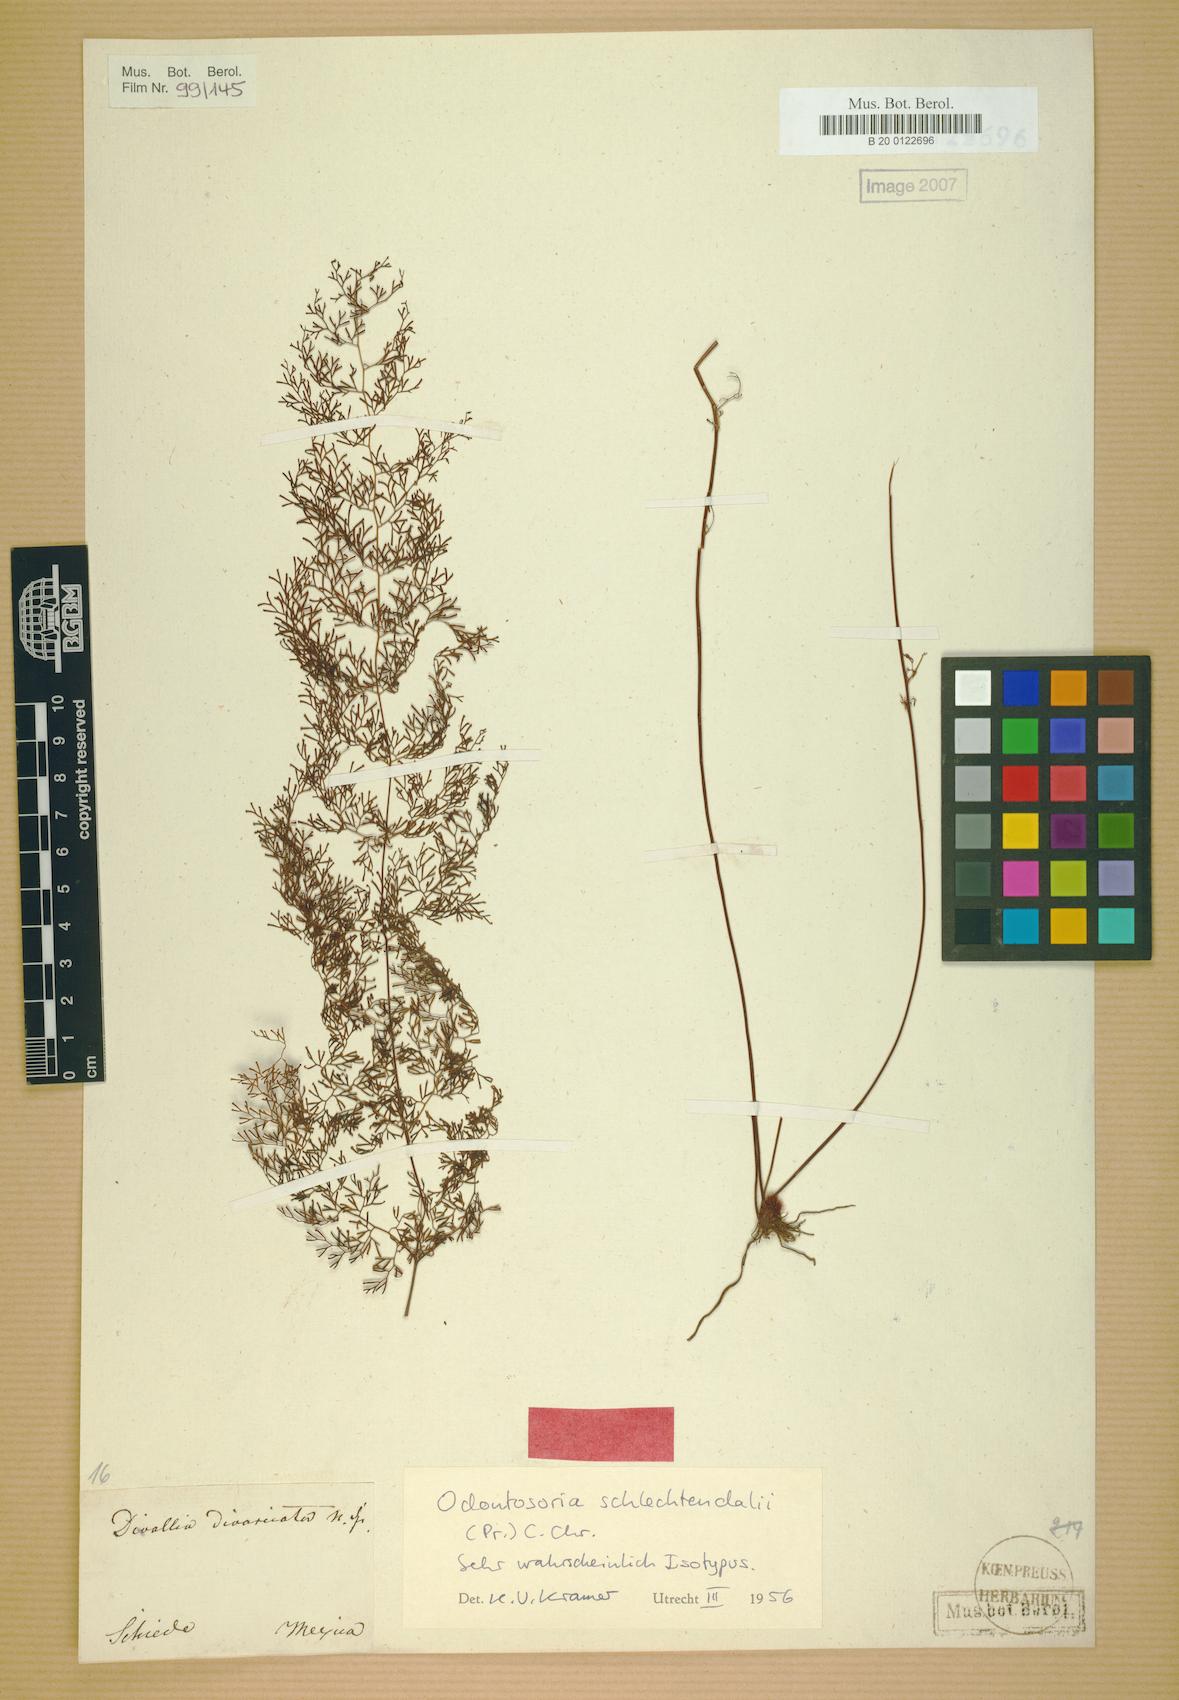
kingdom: Plantae
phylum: Tracheophyta
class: Polypodiopsida
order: Polypodiales
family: Lindsaeaceae
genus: Odontosoria
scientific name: Odontosoria schlechtendalii
